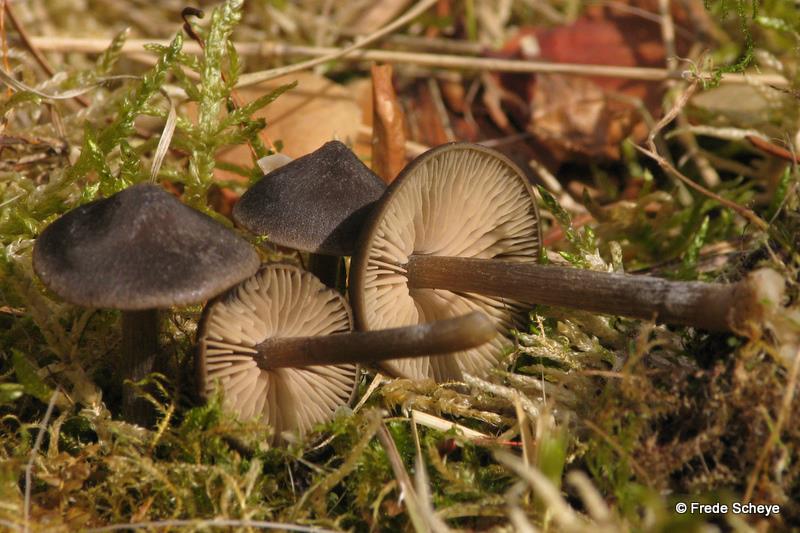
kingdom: Fungi
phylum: Basidiomycota
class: Agaricomycetes
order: Agaricales
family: Entolomataceae
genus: Entoloma
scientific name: Entoloma vernum
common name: vår-rødblad
